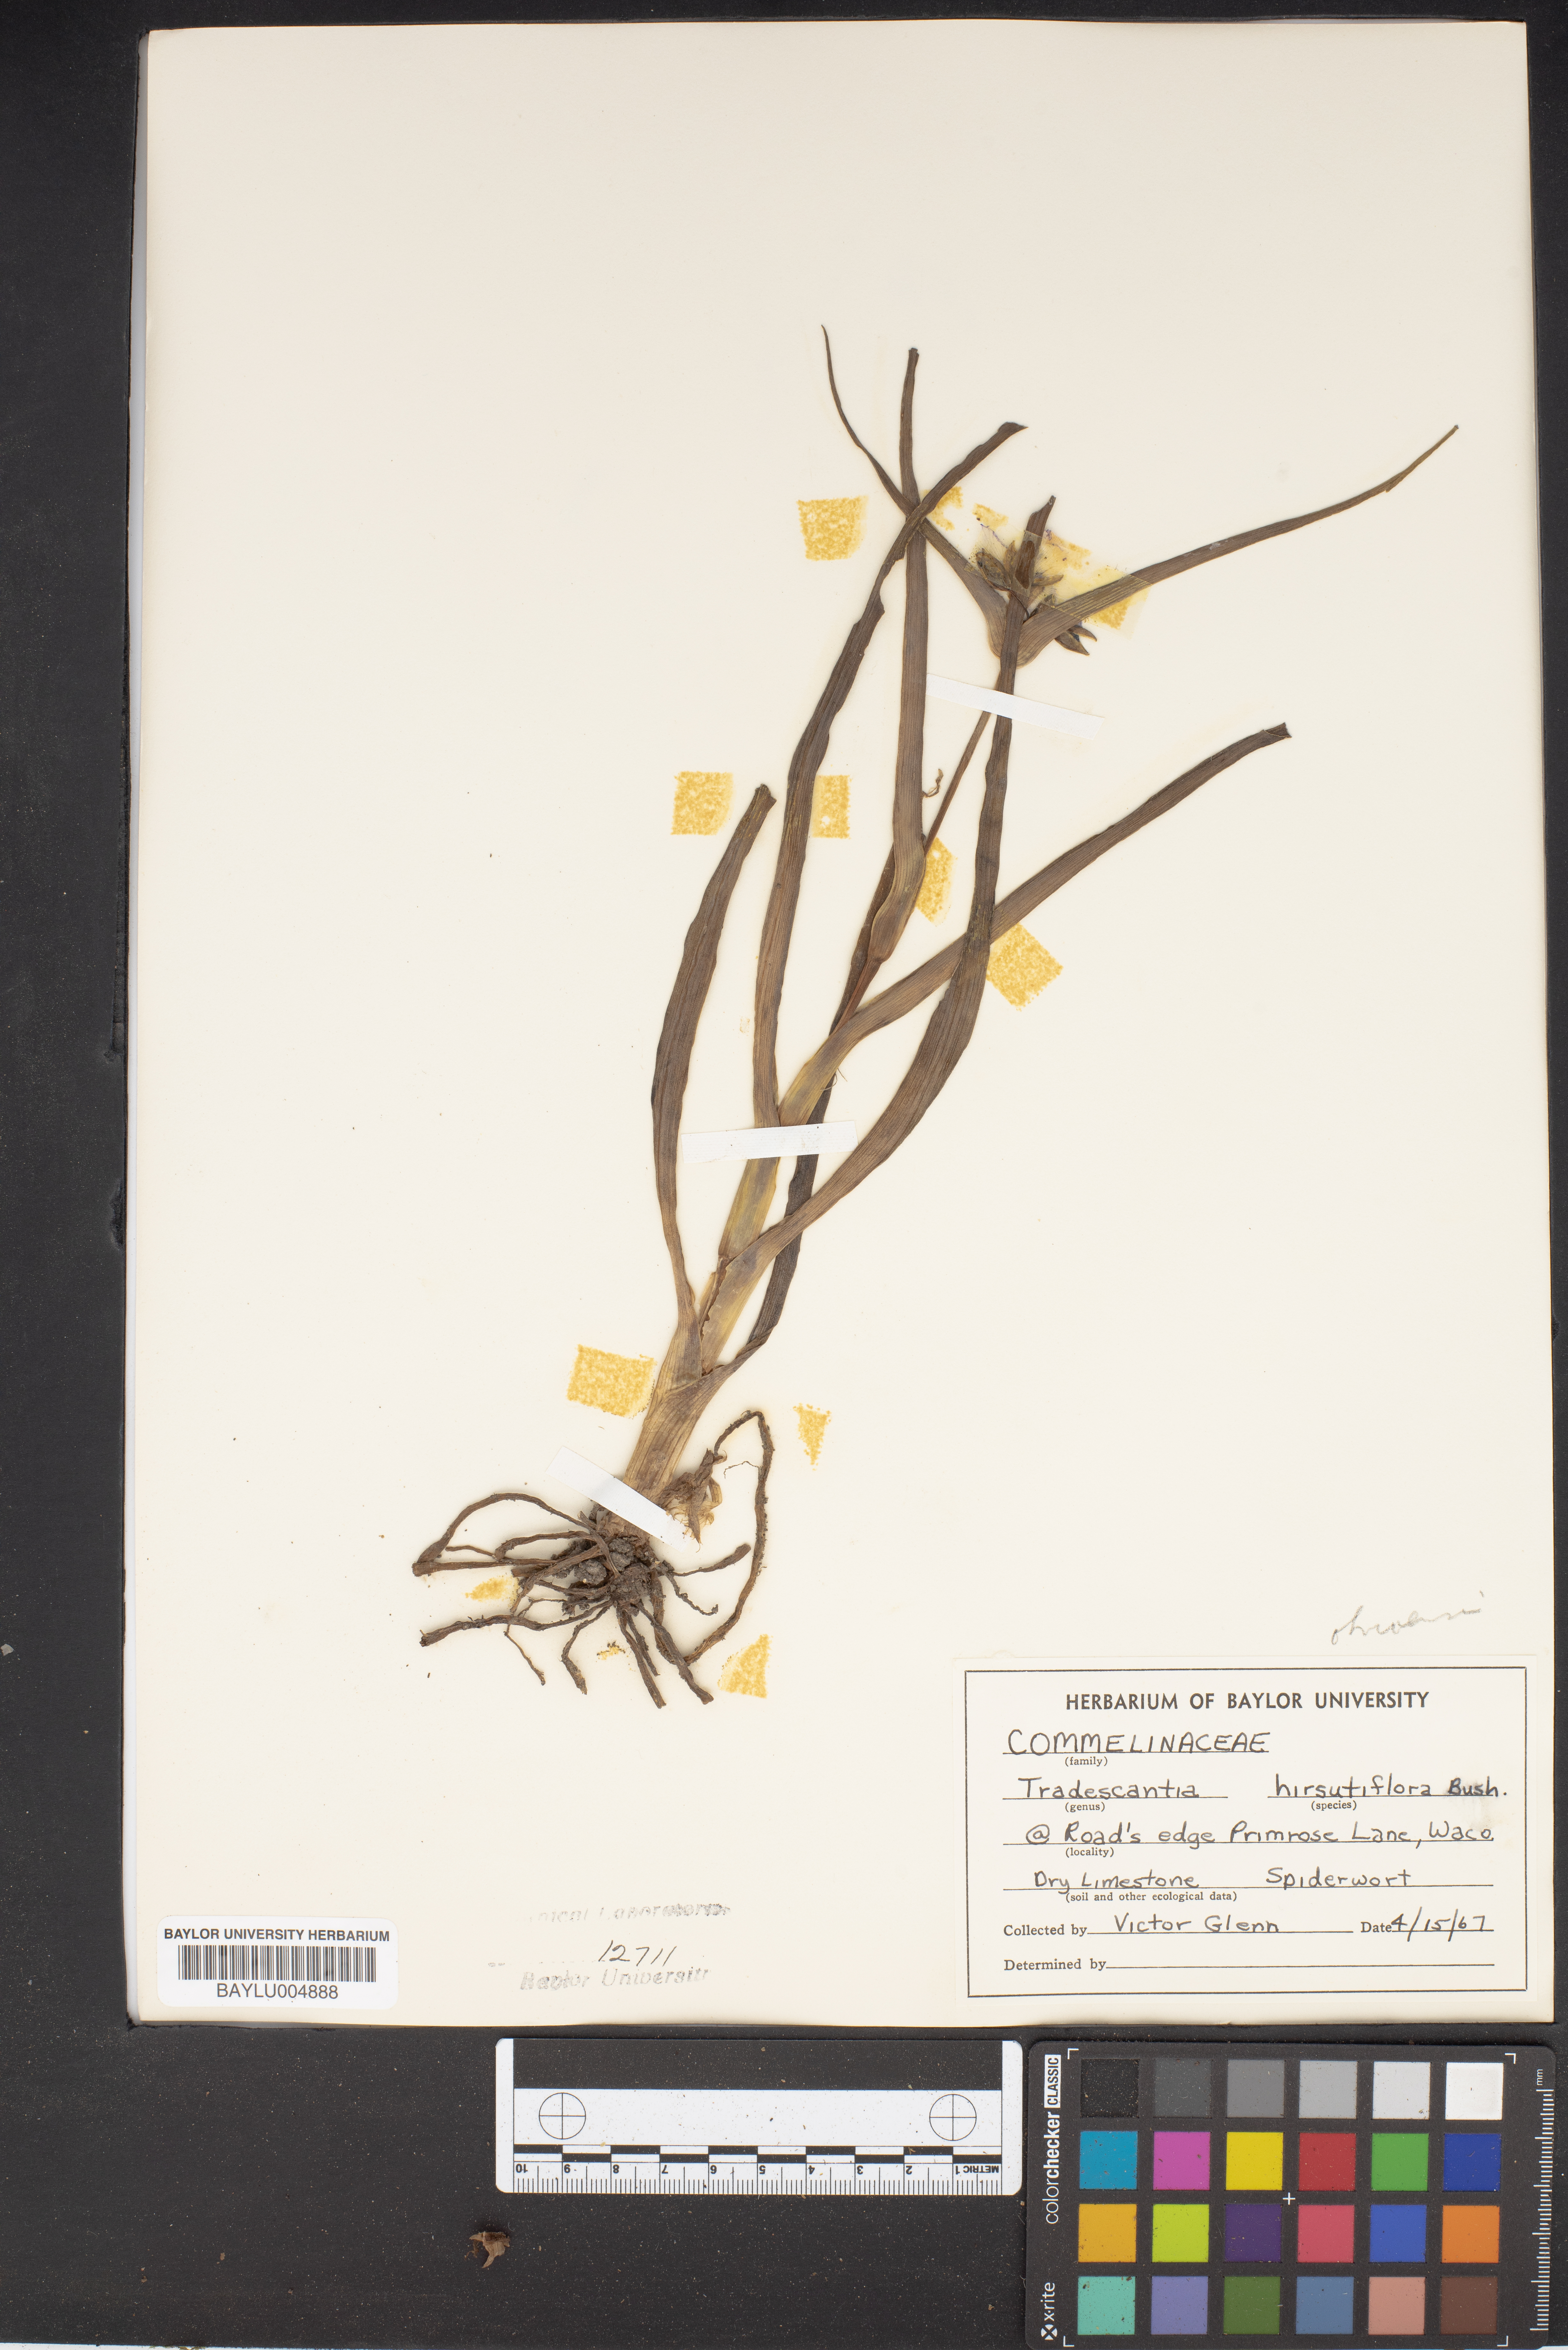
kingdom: Plantae
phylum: Tracheophyta
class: Liliopsida
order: Commelinales
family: Commelinaceae
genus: Tradescantia
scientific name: Tradescantia hirsutiflora
